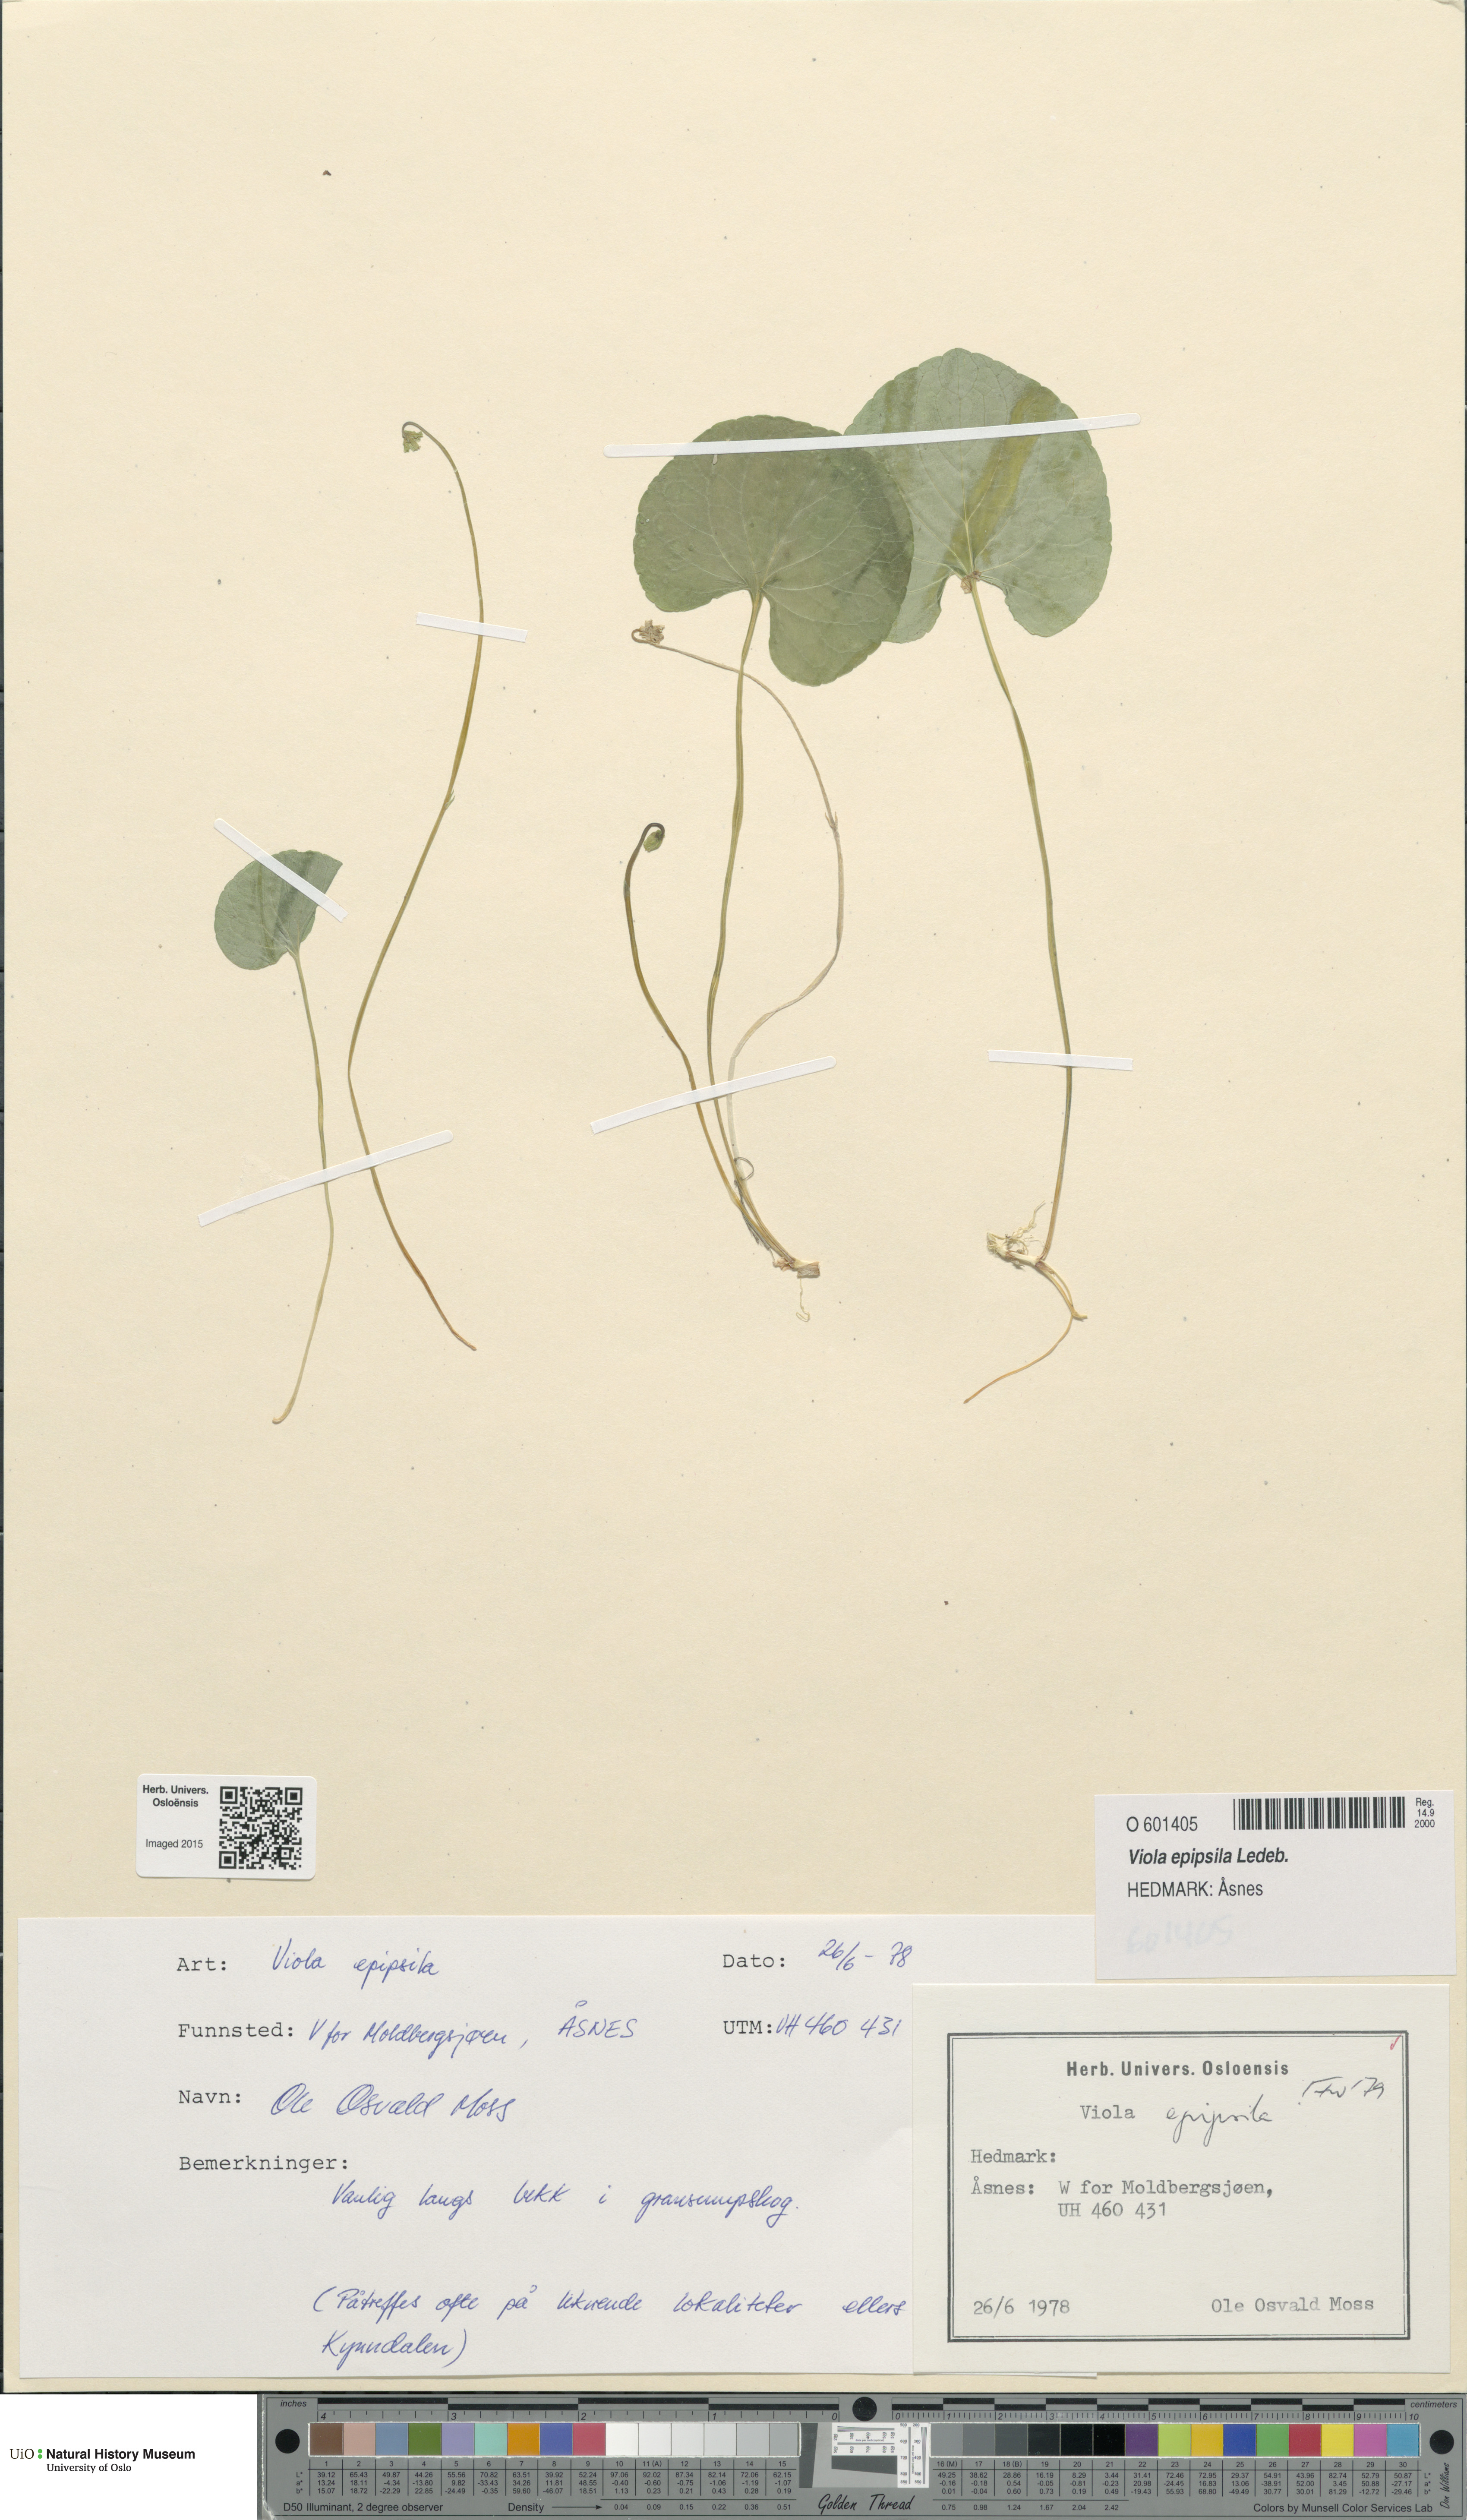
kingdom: Plantae
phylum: Tracheophyta
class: Magnoliopsida
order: Malpighiales
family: Violaceae
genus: Viola
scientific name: Viola epipsila
